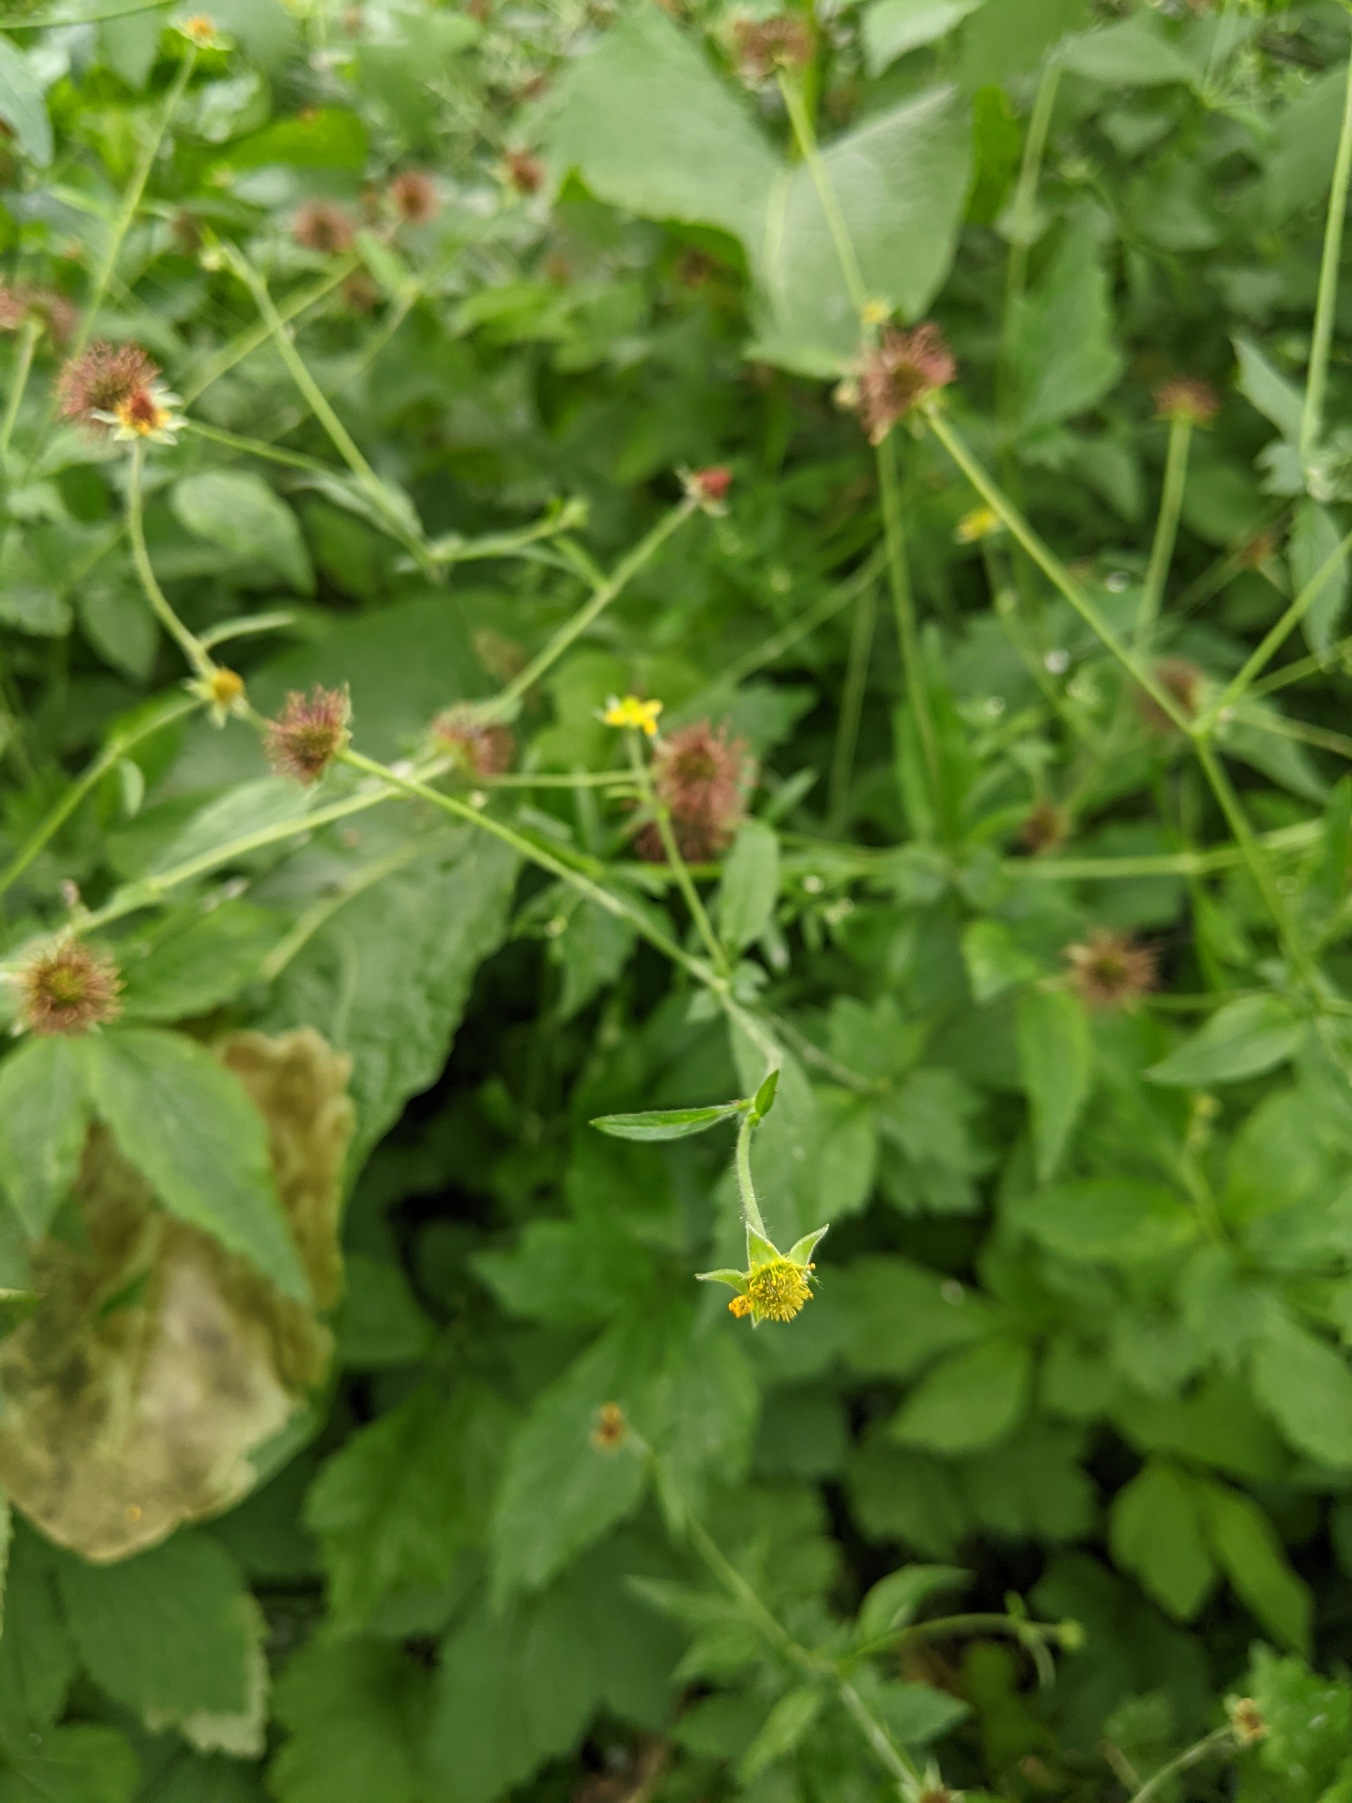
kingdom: Plantae
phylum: Tracheophyta
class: Magnoliopsida
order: Rosales
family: Rosaceae
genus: Geum
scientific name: Geum urbanum
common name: Feber-nellikerod
